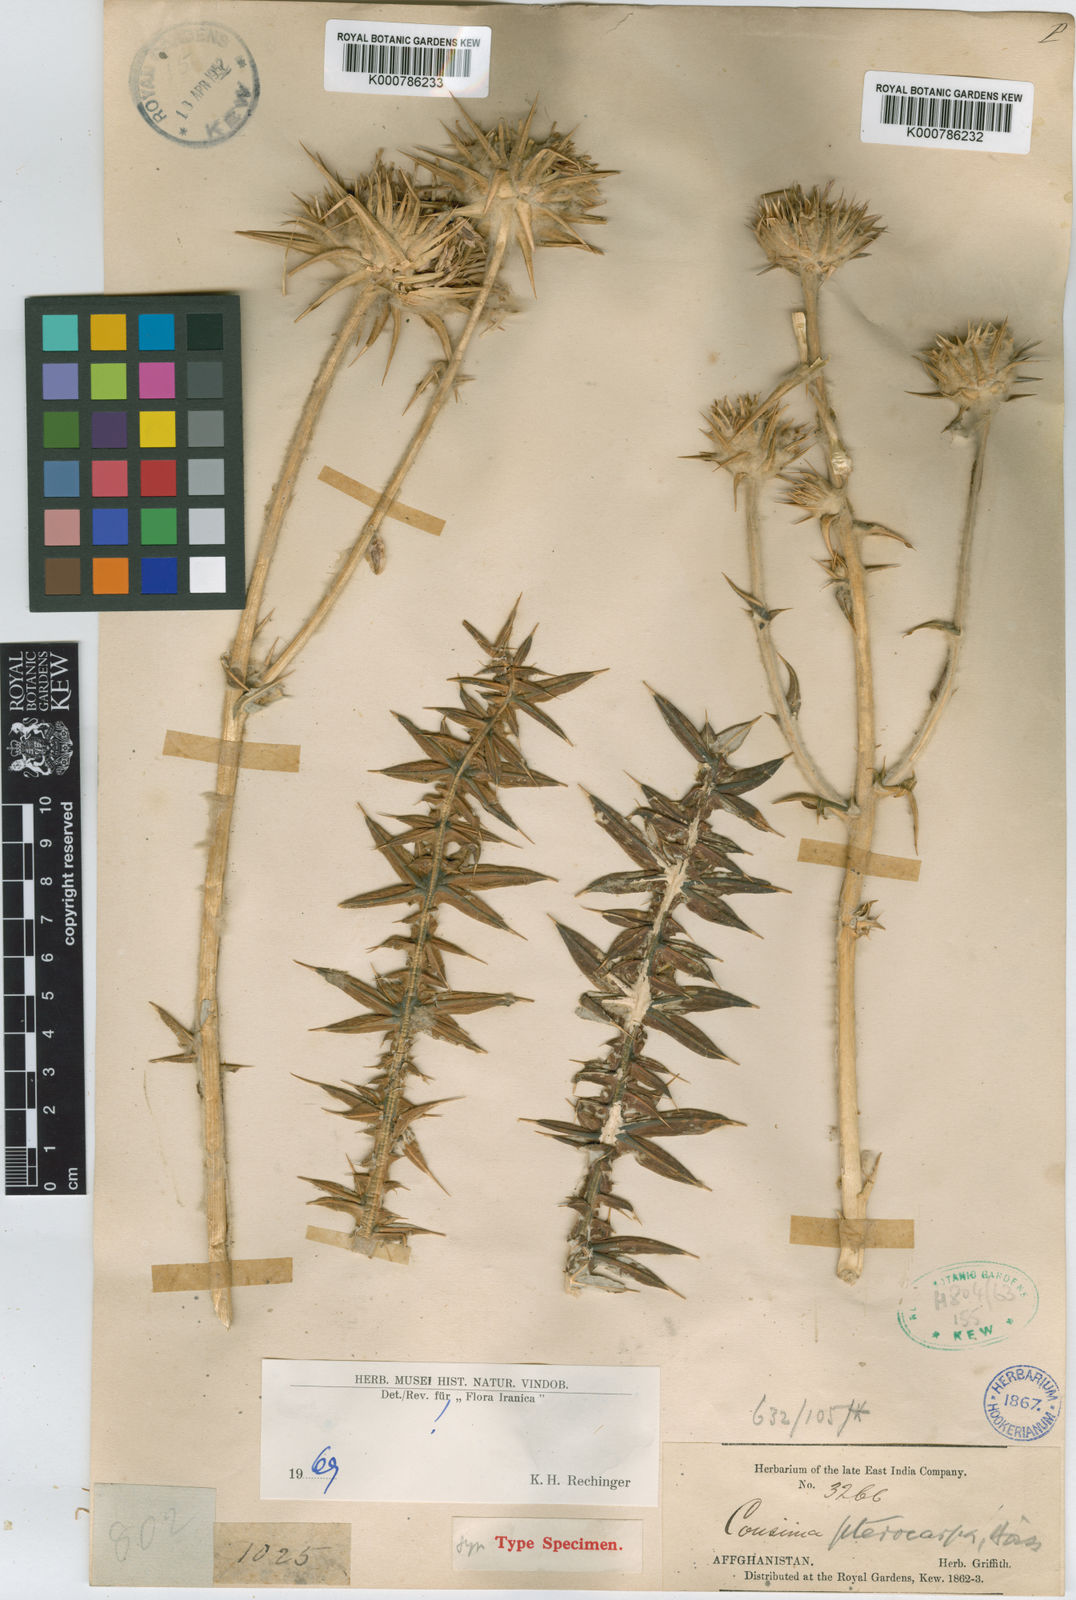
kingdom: Plantae
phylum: Tracheophyta
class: Magnoliopsida
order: Asterales
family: Asteraceae
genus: Cousinia
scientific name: Cousinia pterocarpa
